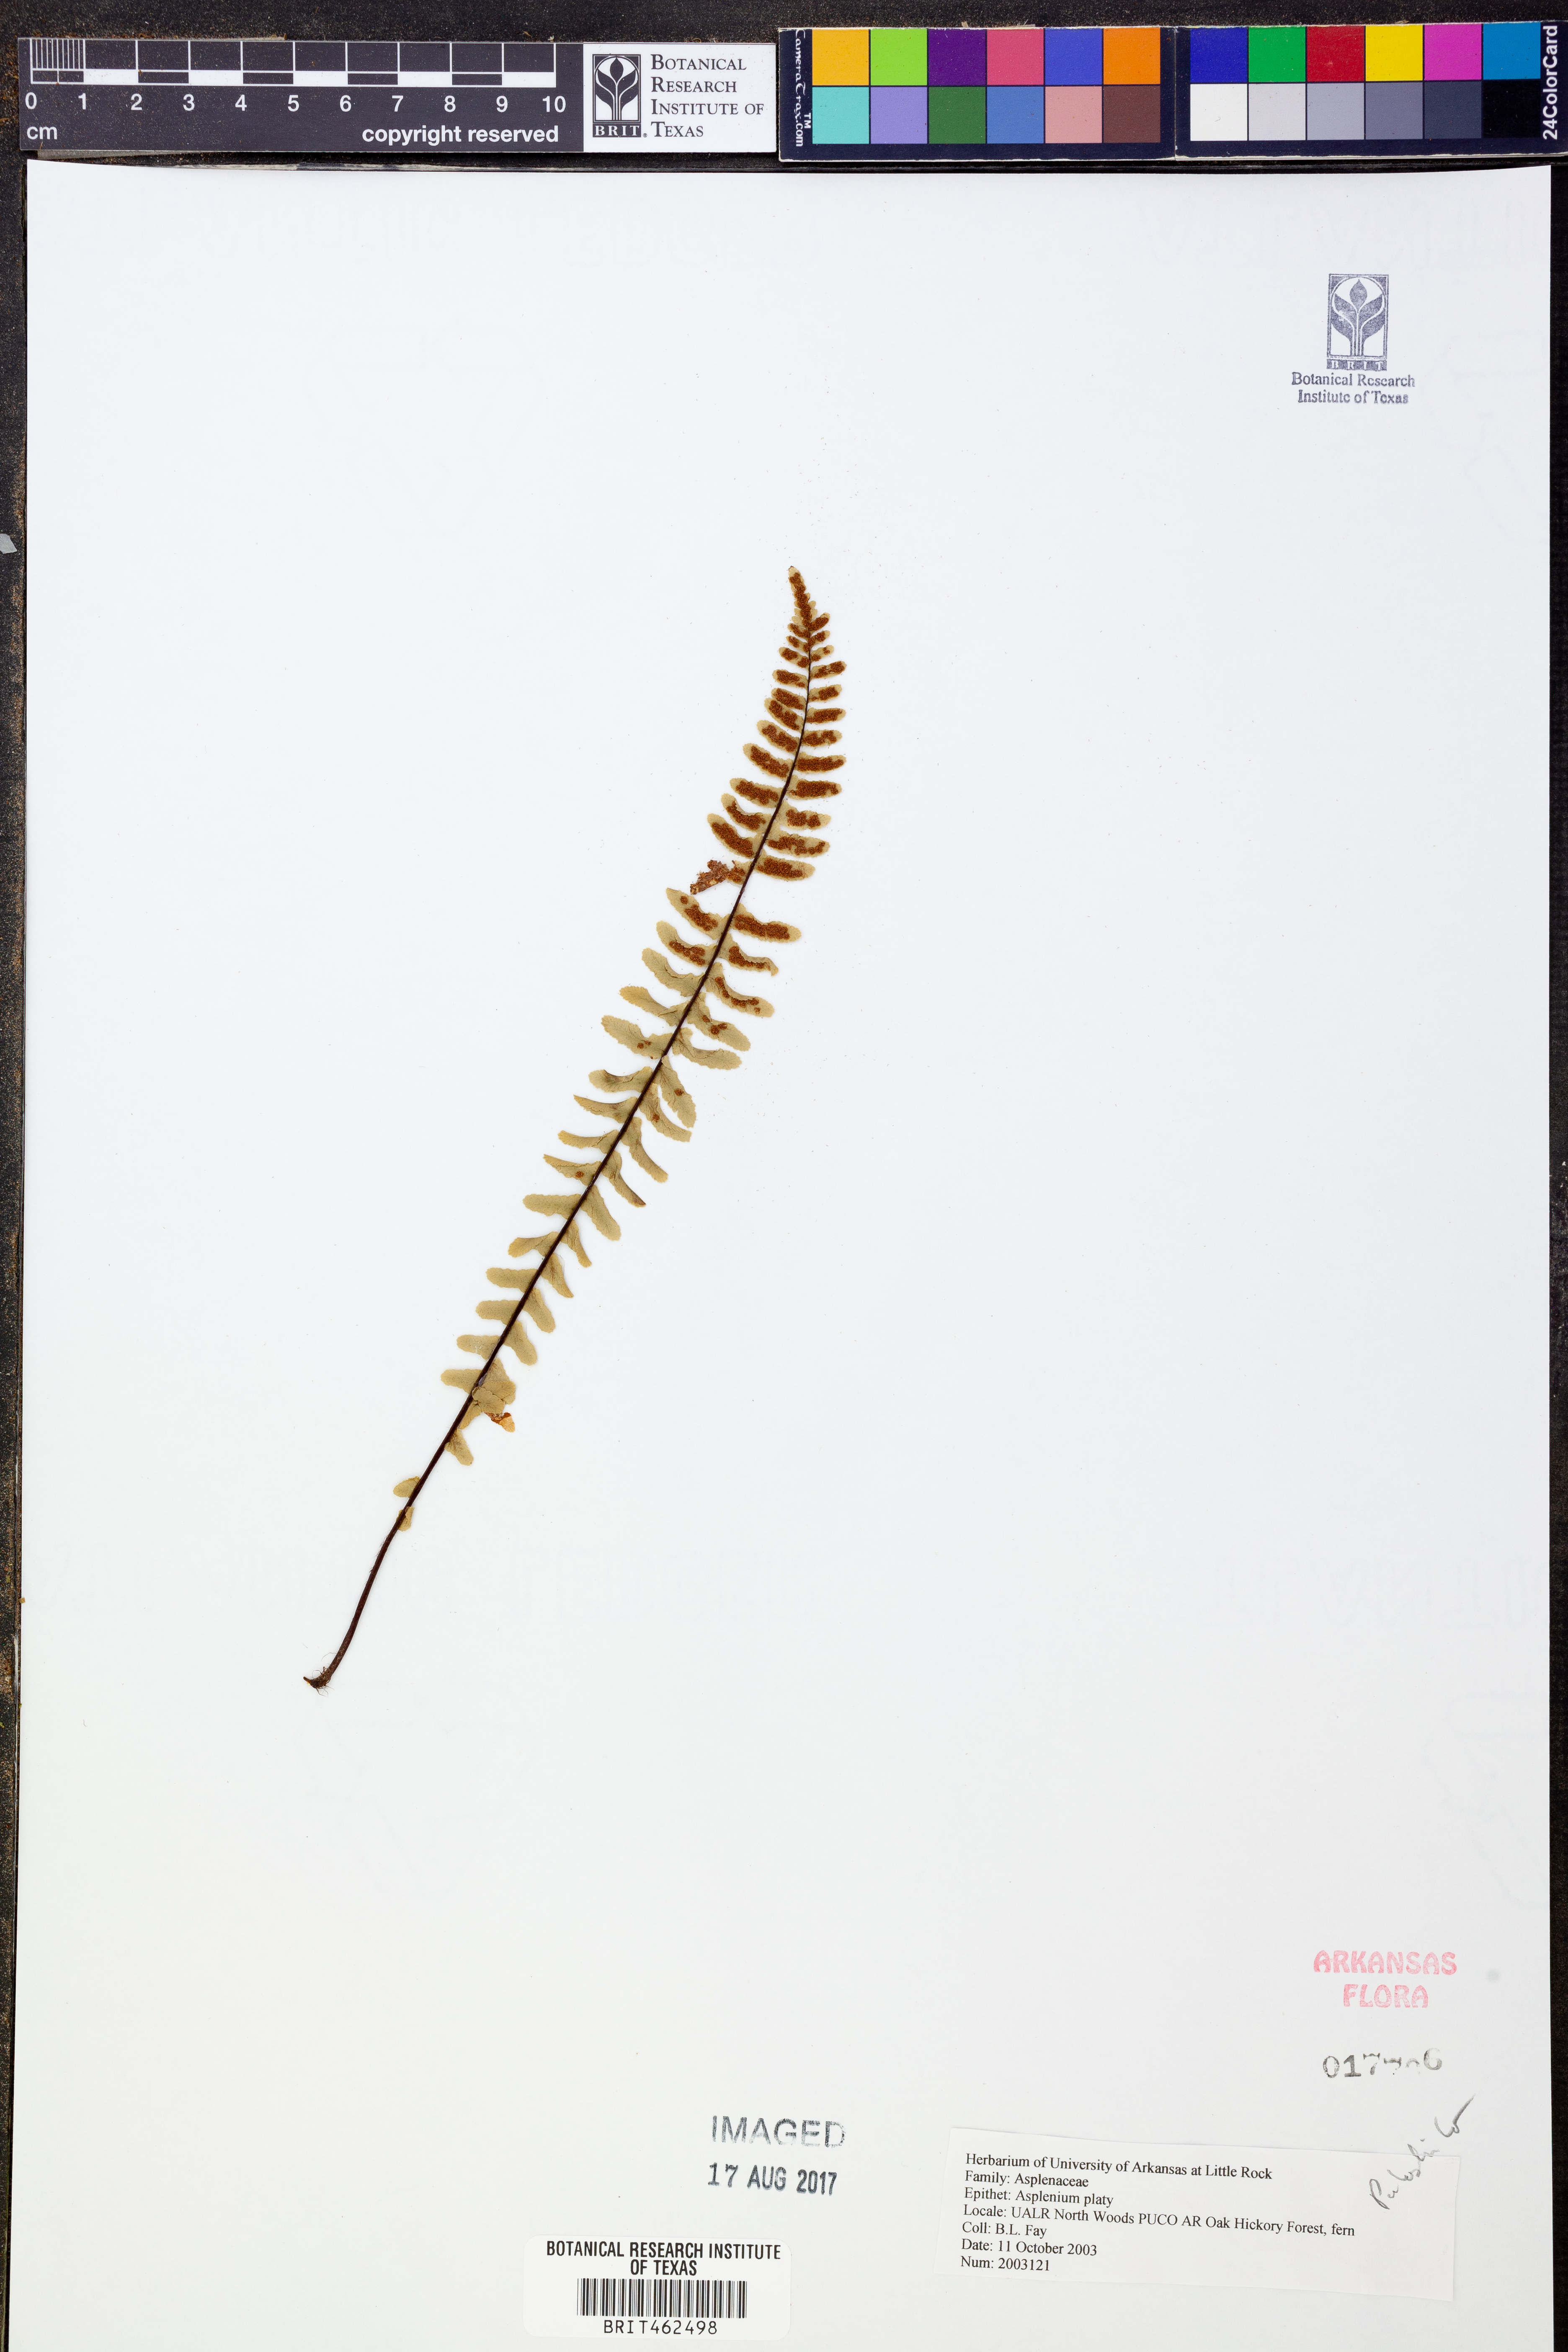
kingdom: Plantae
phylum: Tracheophyta
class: Polypodiopsida
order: Polypodiales
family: Aspleniaceae
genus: Asplenium
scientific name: Asplenium platyneuron
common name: Ebony spleenwort
